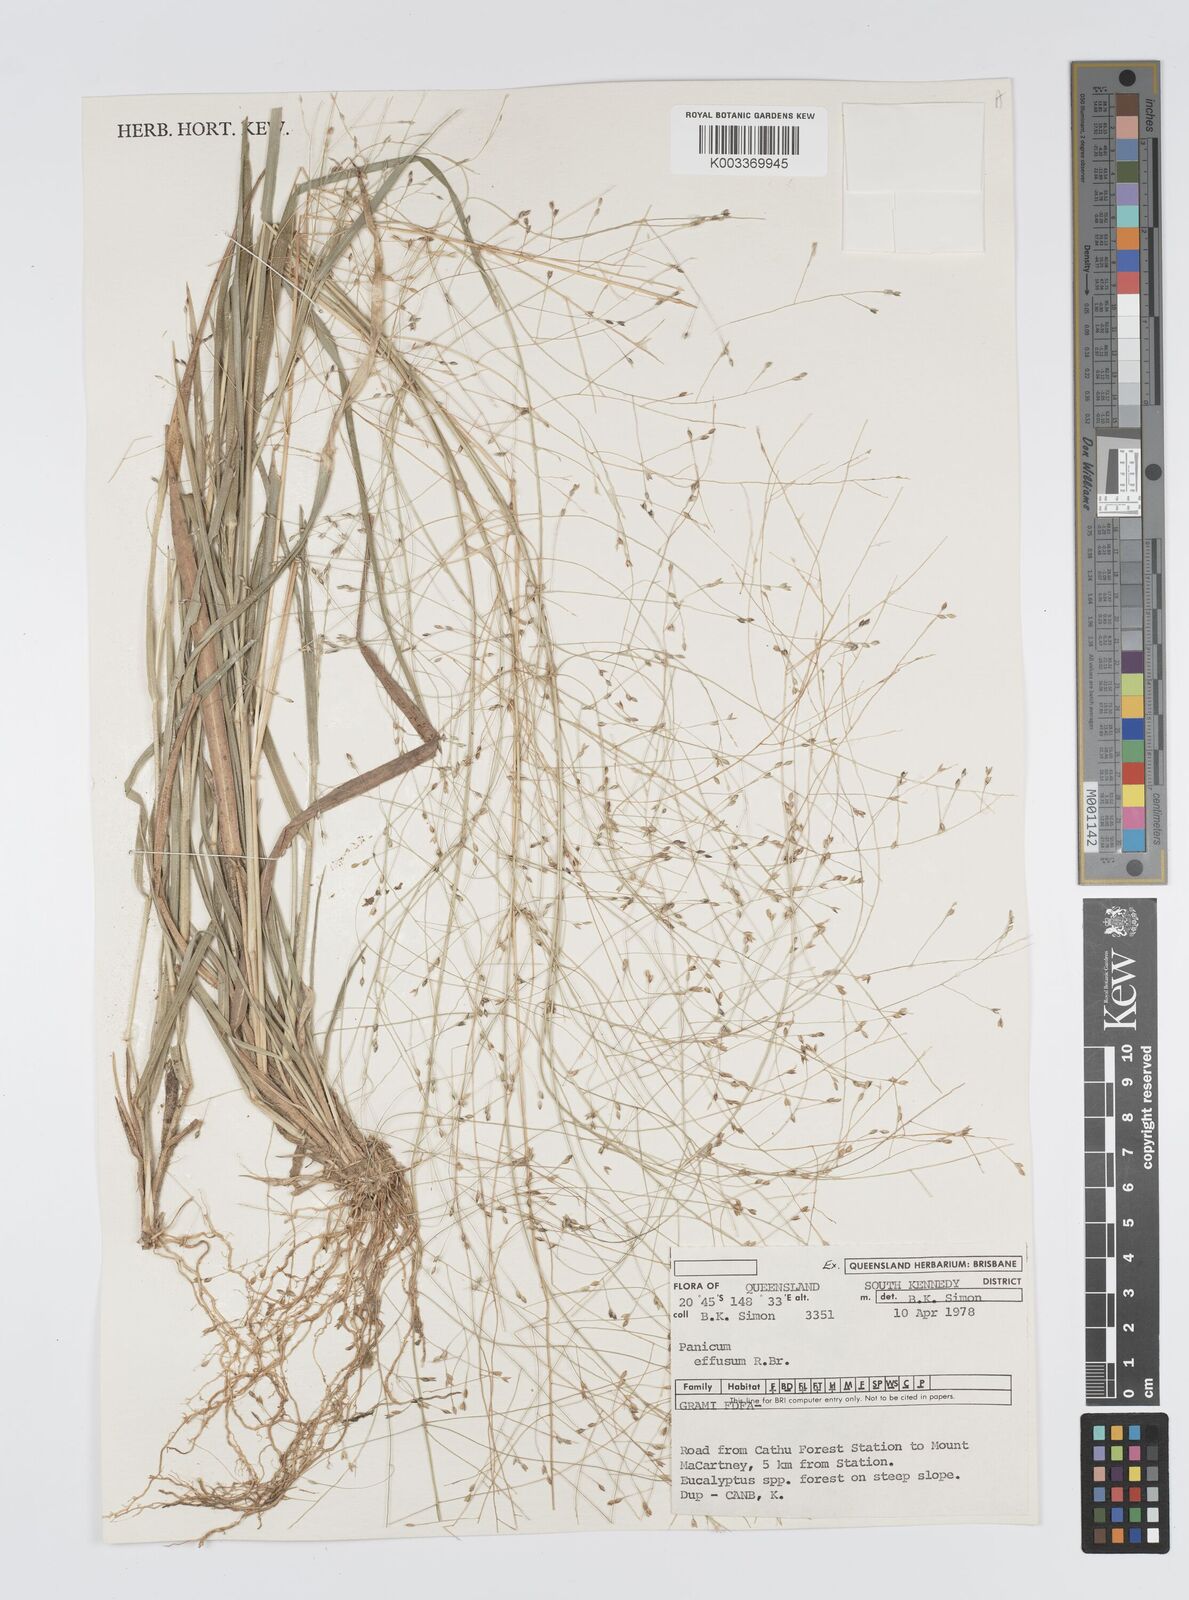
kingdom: Plantae
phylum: Tracheophyta
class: Liliopsida
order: Poales
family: Poaceae
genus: Panicum
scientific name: Panicum effusum
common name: Hairy panic grass
